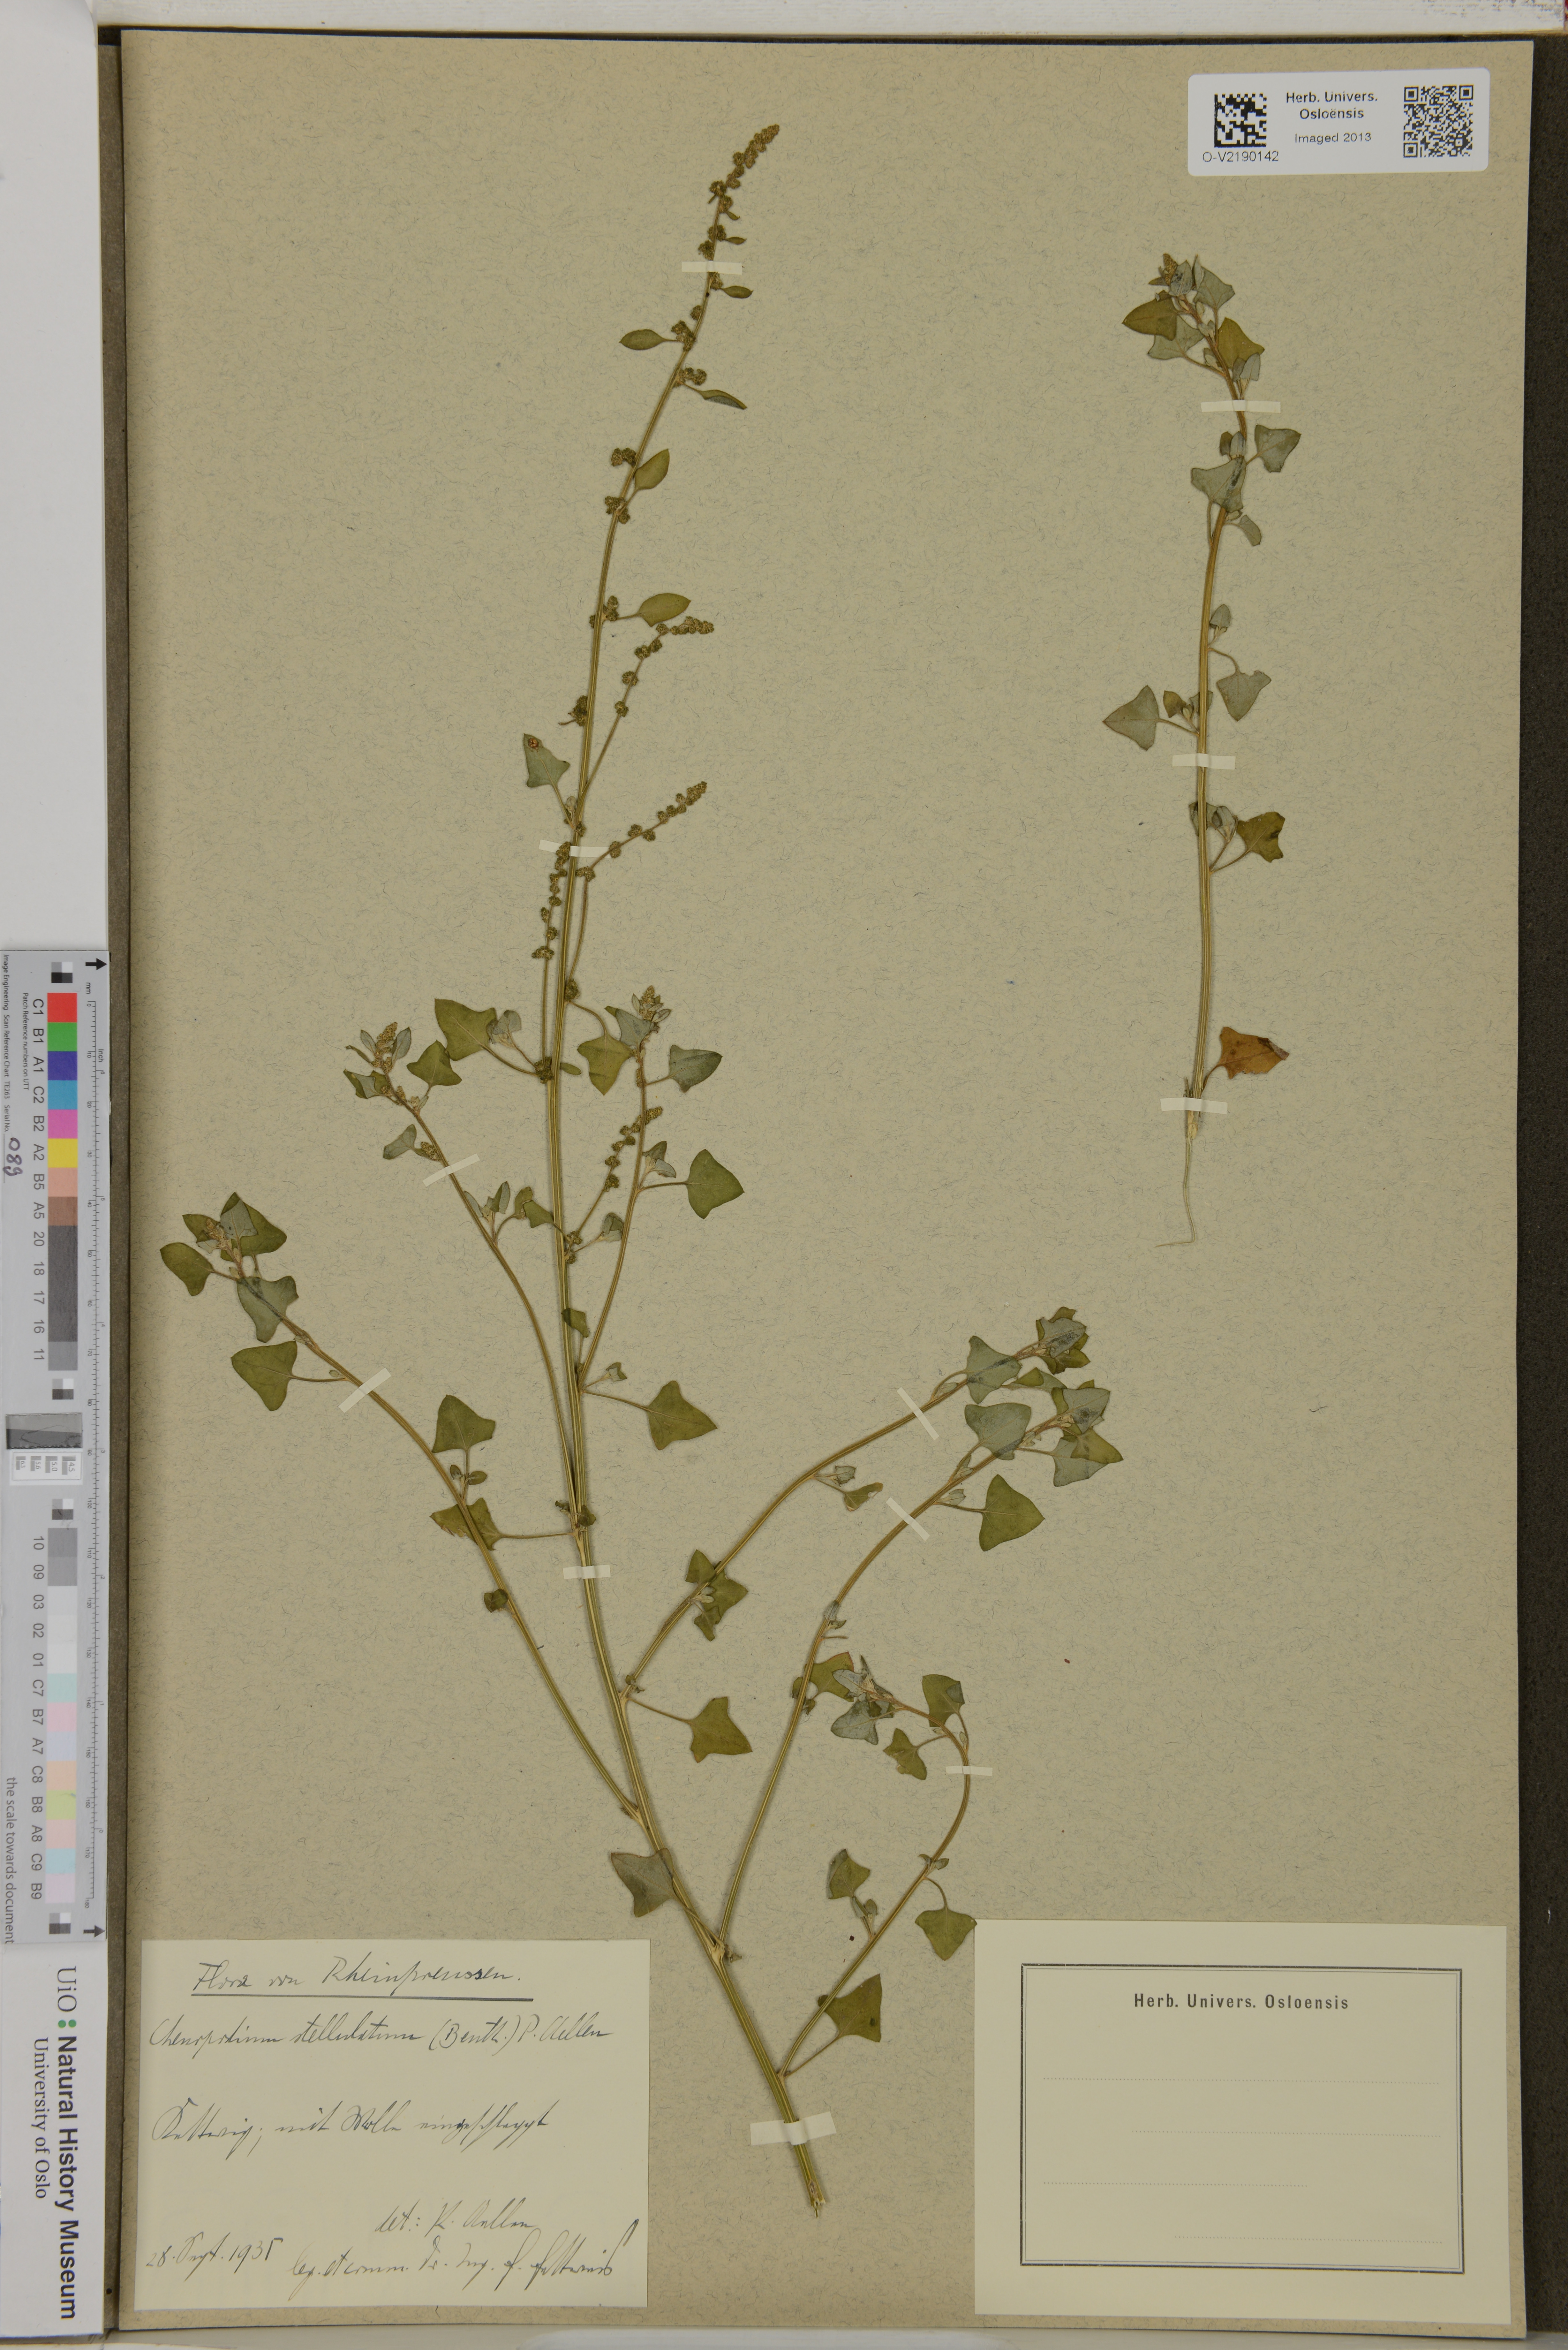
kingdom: Plantae
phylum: Tracheophyta
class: Magnoliopsida
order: Caryophyllales
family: Amaranthaceae
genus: Chenopodium
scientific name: Chenopodium
